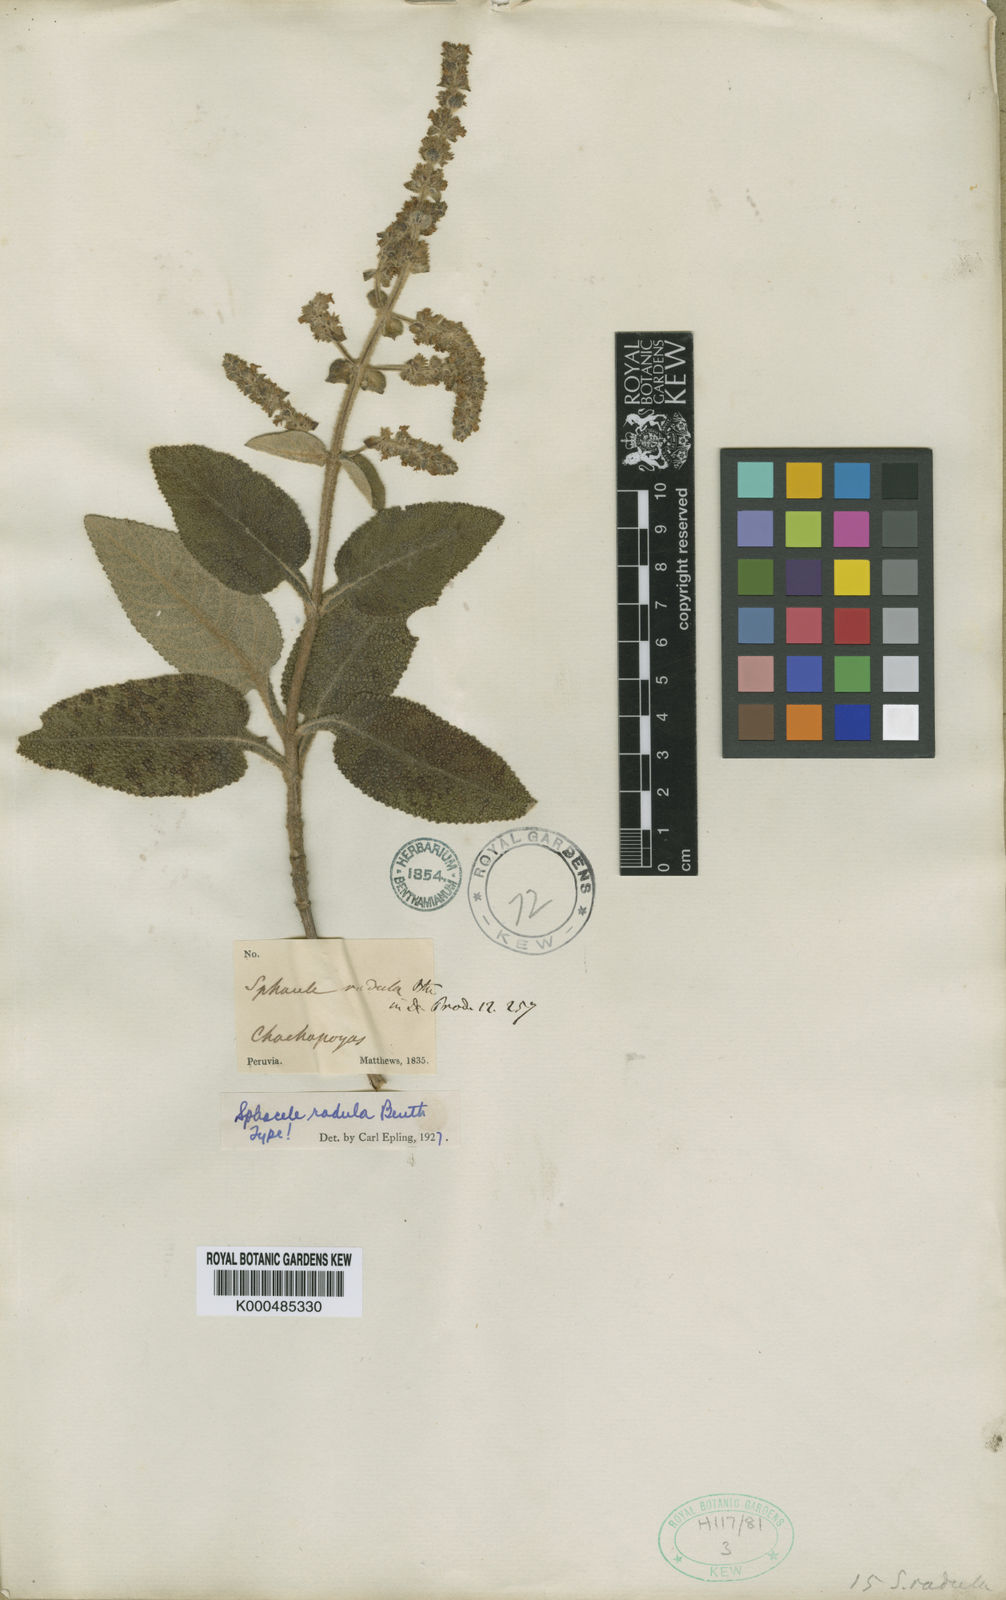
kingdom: Plantae
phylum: Tracheophyta
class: Magnoliopsida
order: Lamiales
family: Lamiaceae
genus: Lepechinia
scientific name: Lepechinia radula
